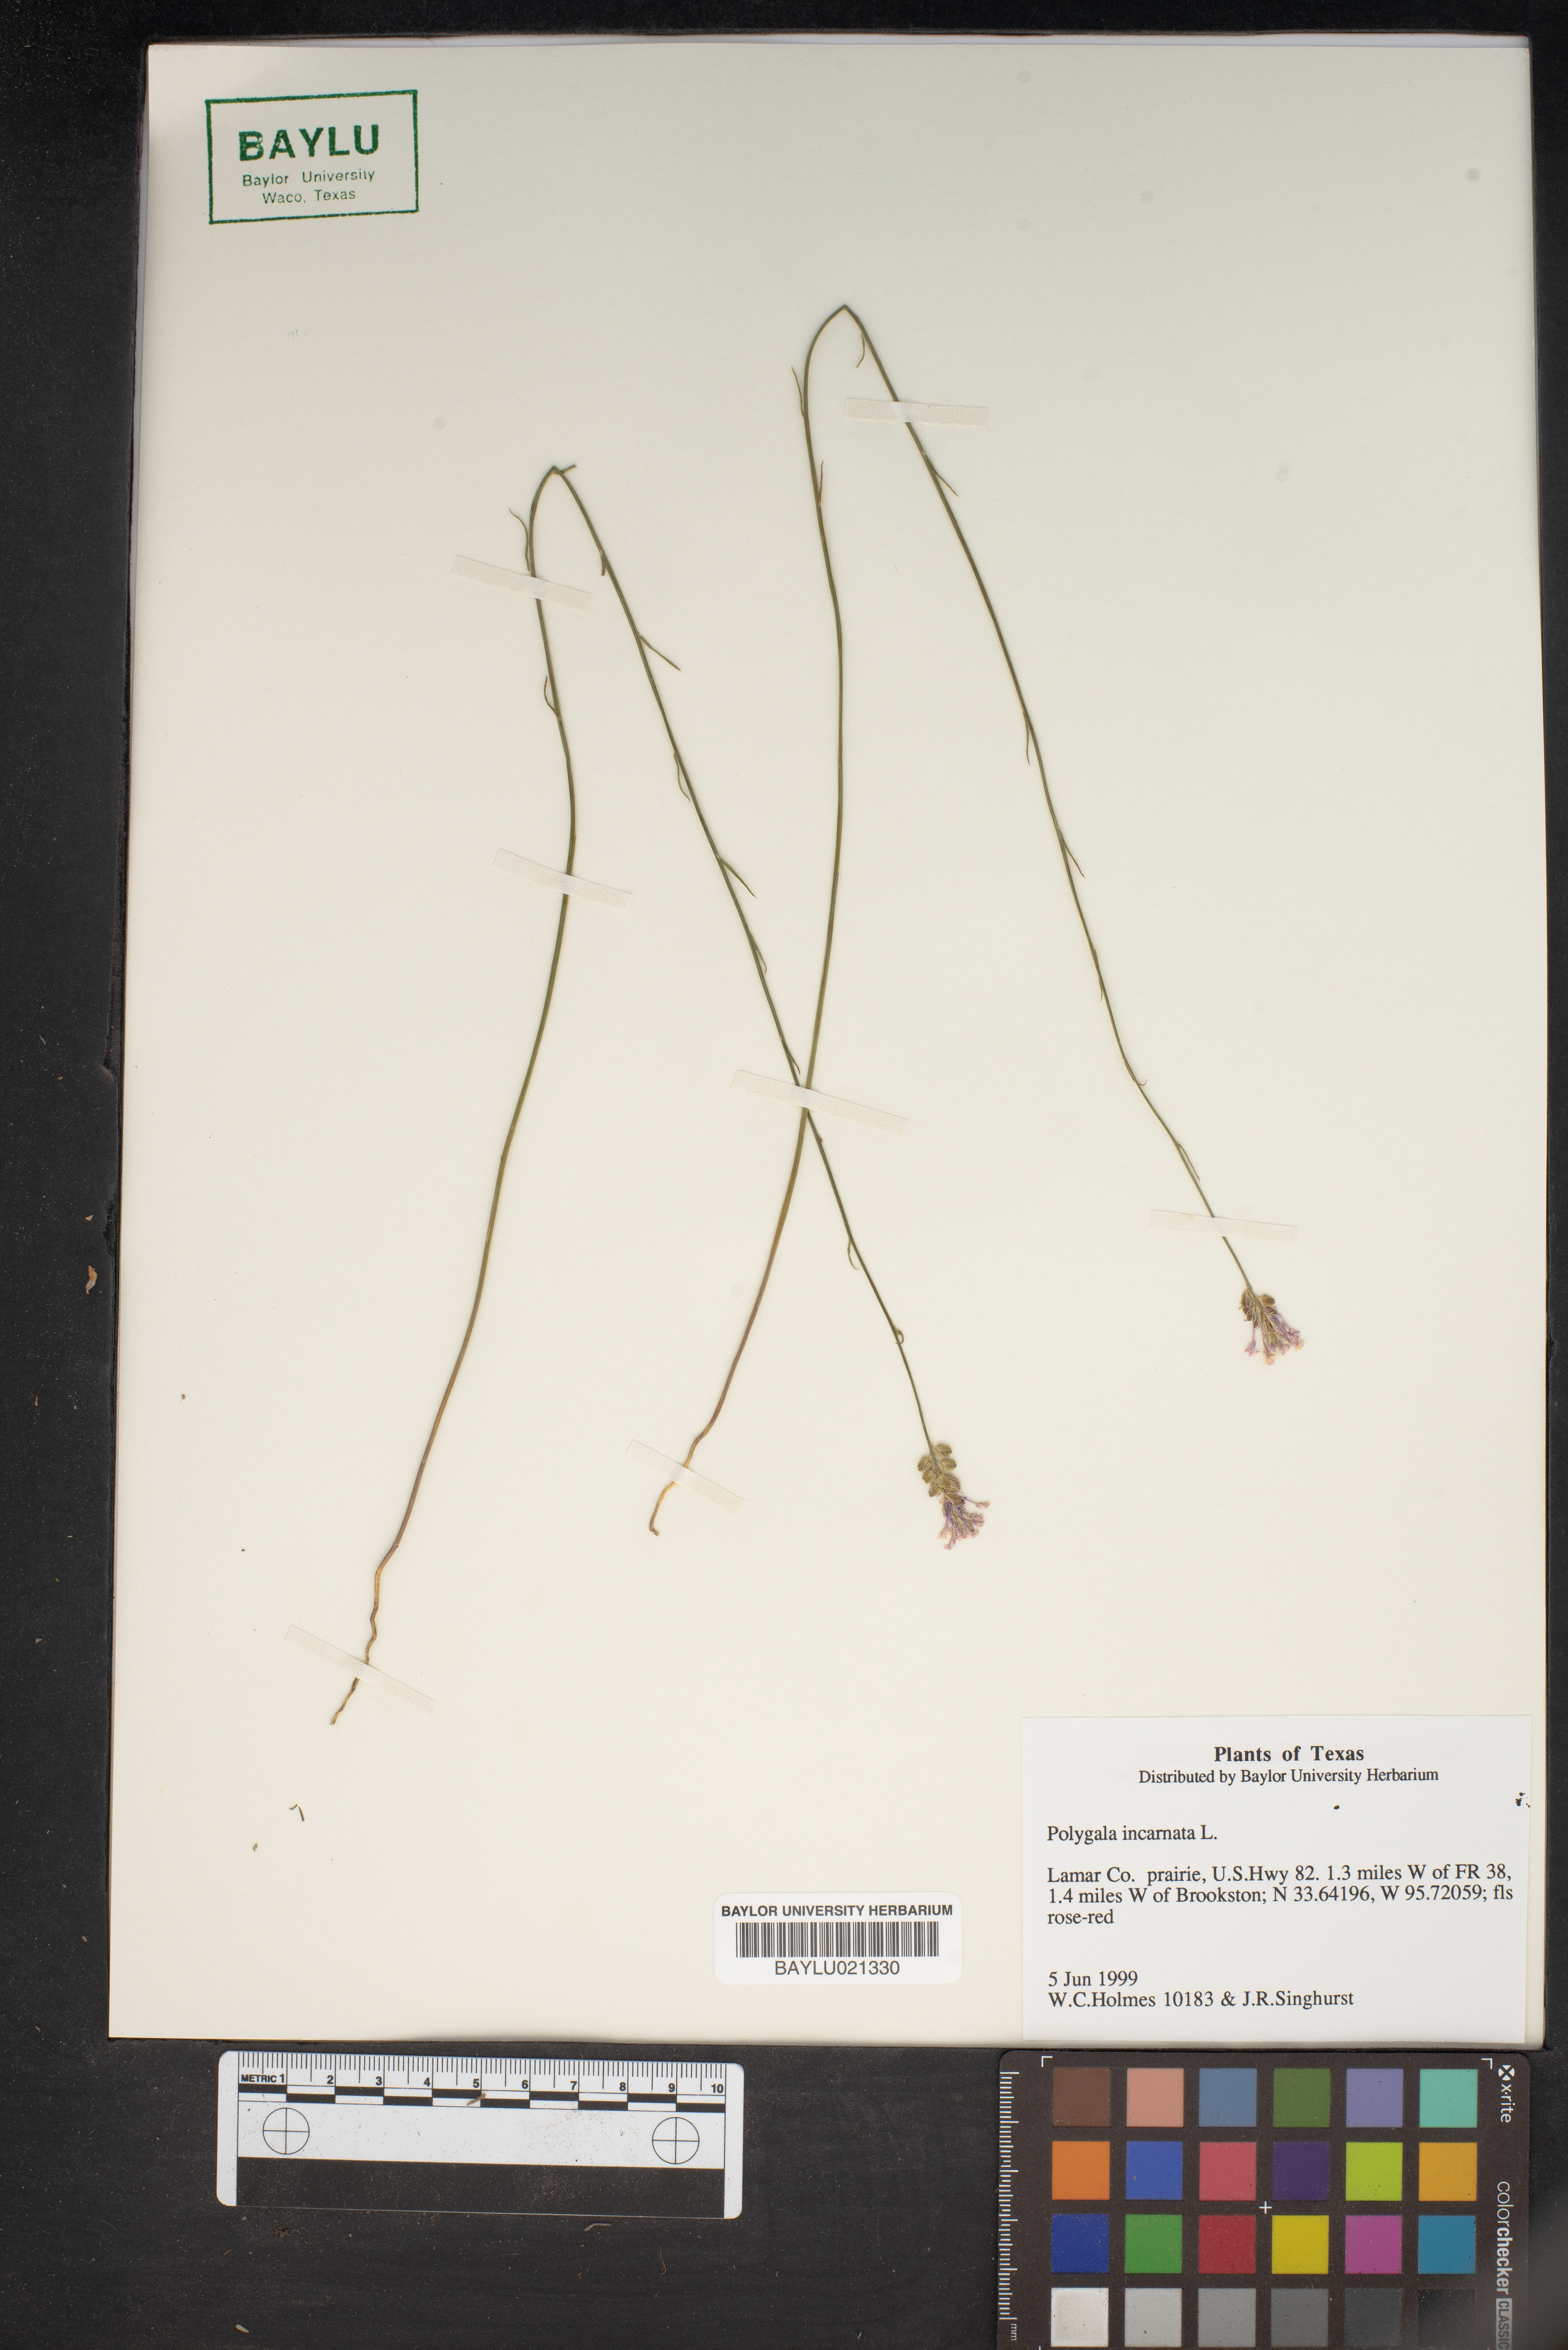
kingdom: Plantae
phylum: Tracheophyta
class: Magnoliopsida
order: Fabales
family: Polygalaceae
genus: Polygala
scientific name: Polygala incarnata
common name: Pink milkwort
